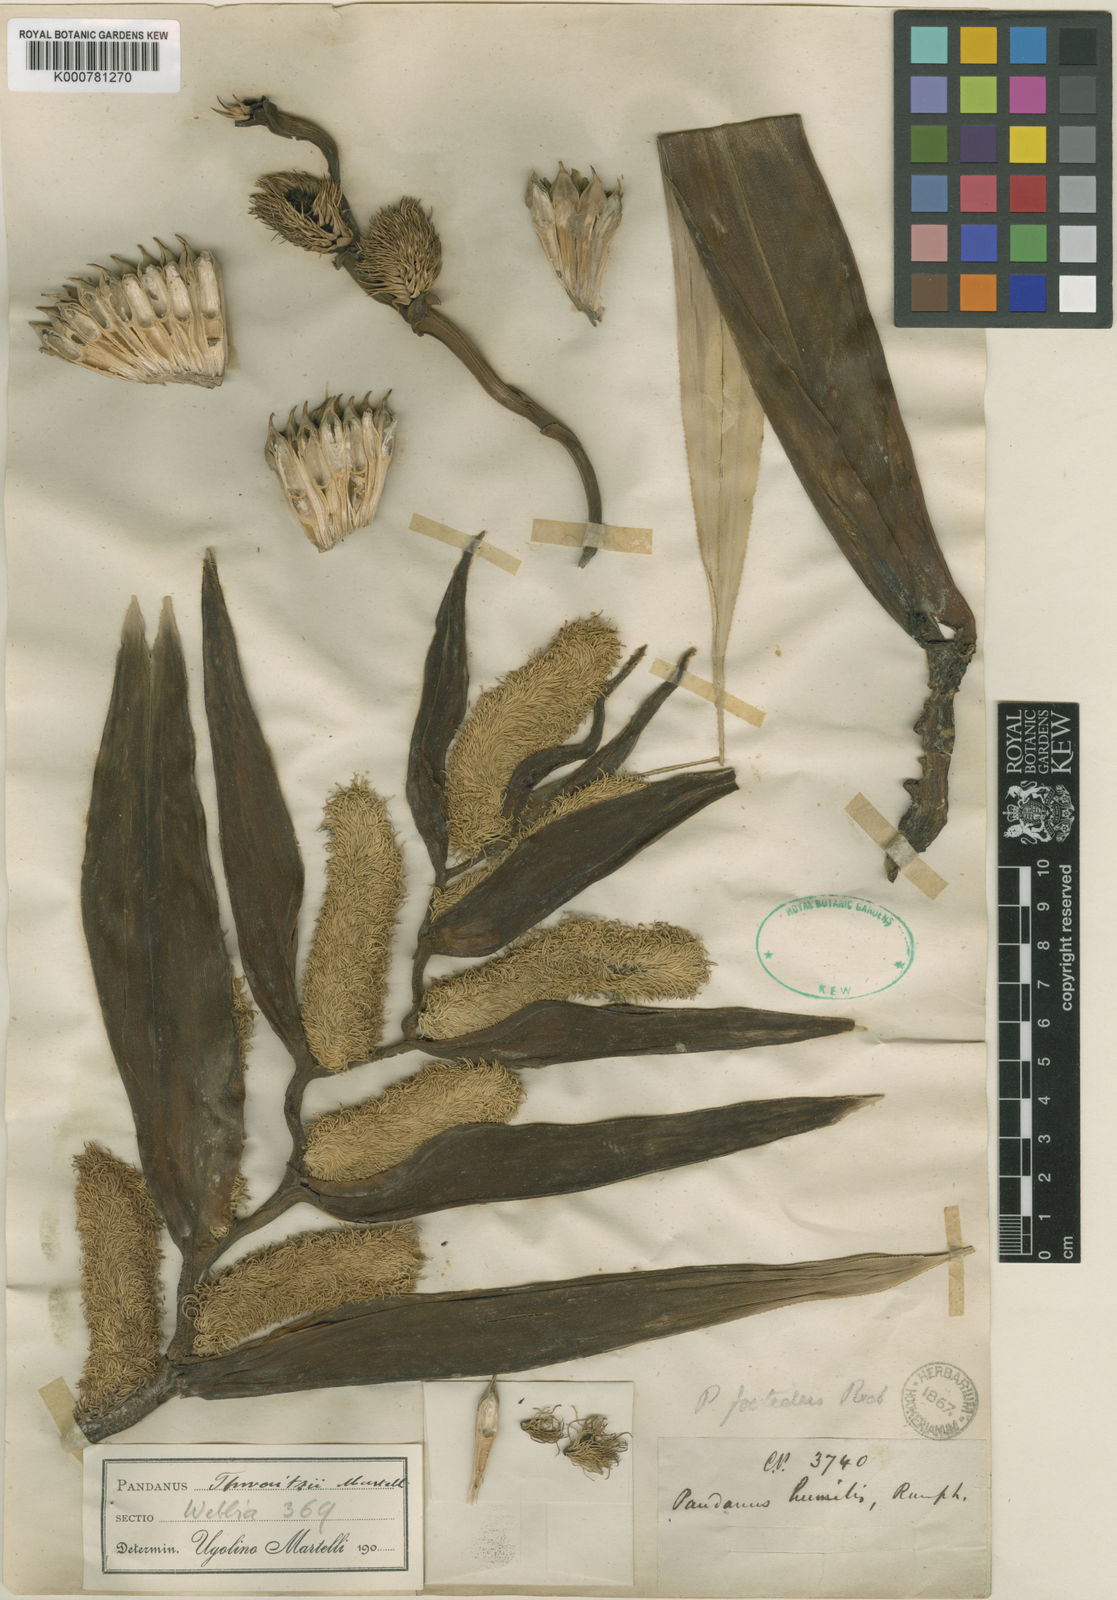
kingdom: Plantae
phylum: Tracheophyta
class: Liliopsida
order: Pandanales
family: Pandanaceae
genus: Benstonea
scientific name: Benstonea thwaitesii
